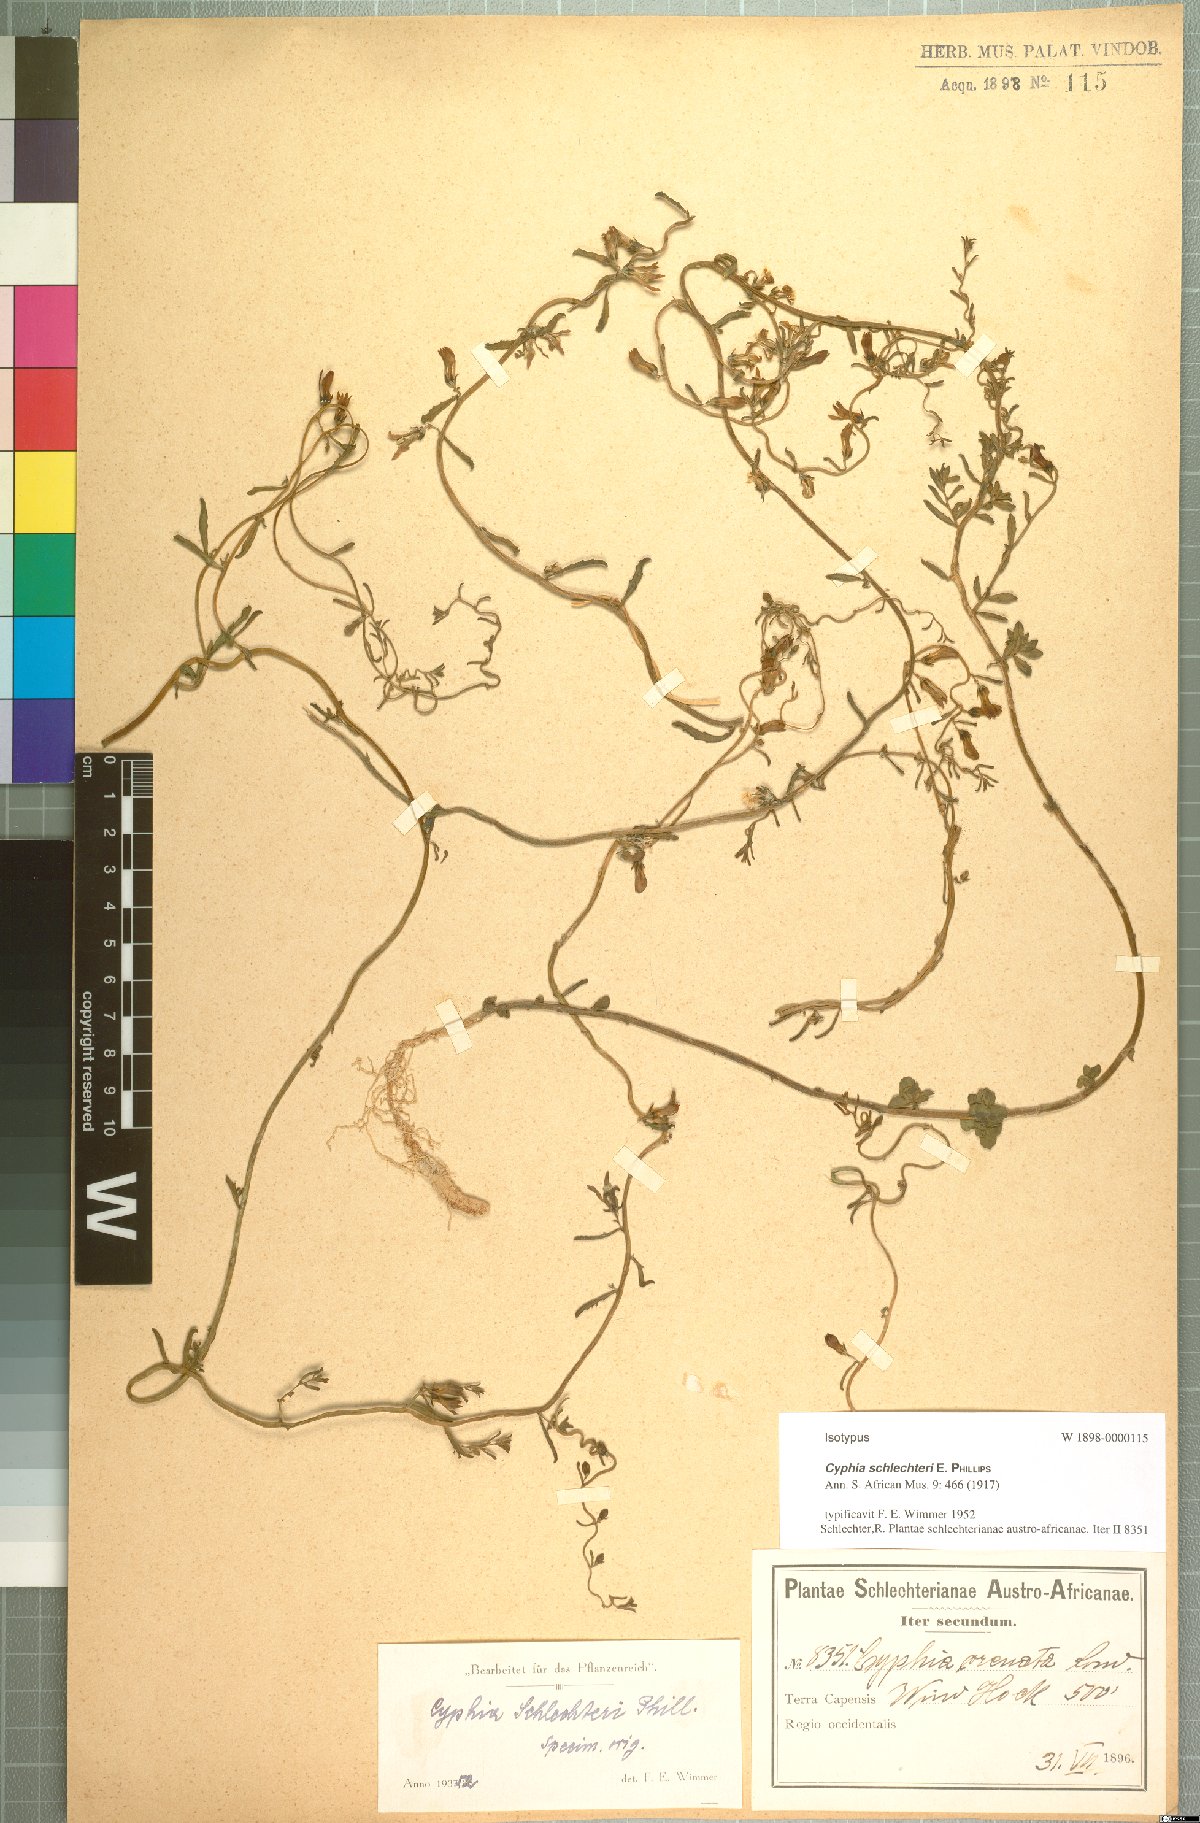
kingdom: Plantae
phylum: Tracheophyta
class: Magnoliopsida
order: Asterales
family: Campanulaceae
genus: Cyphia
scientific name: Cyphia schlechteri
